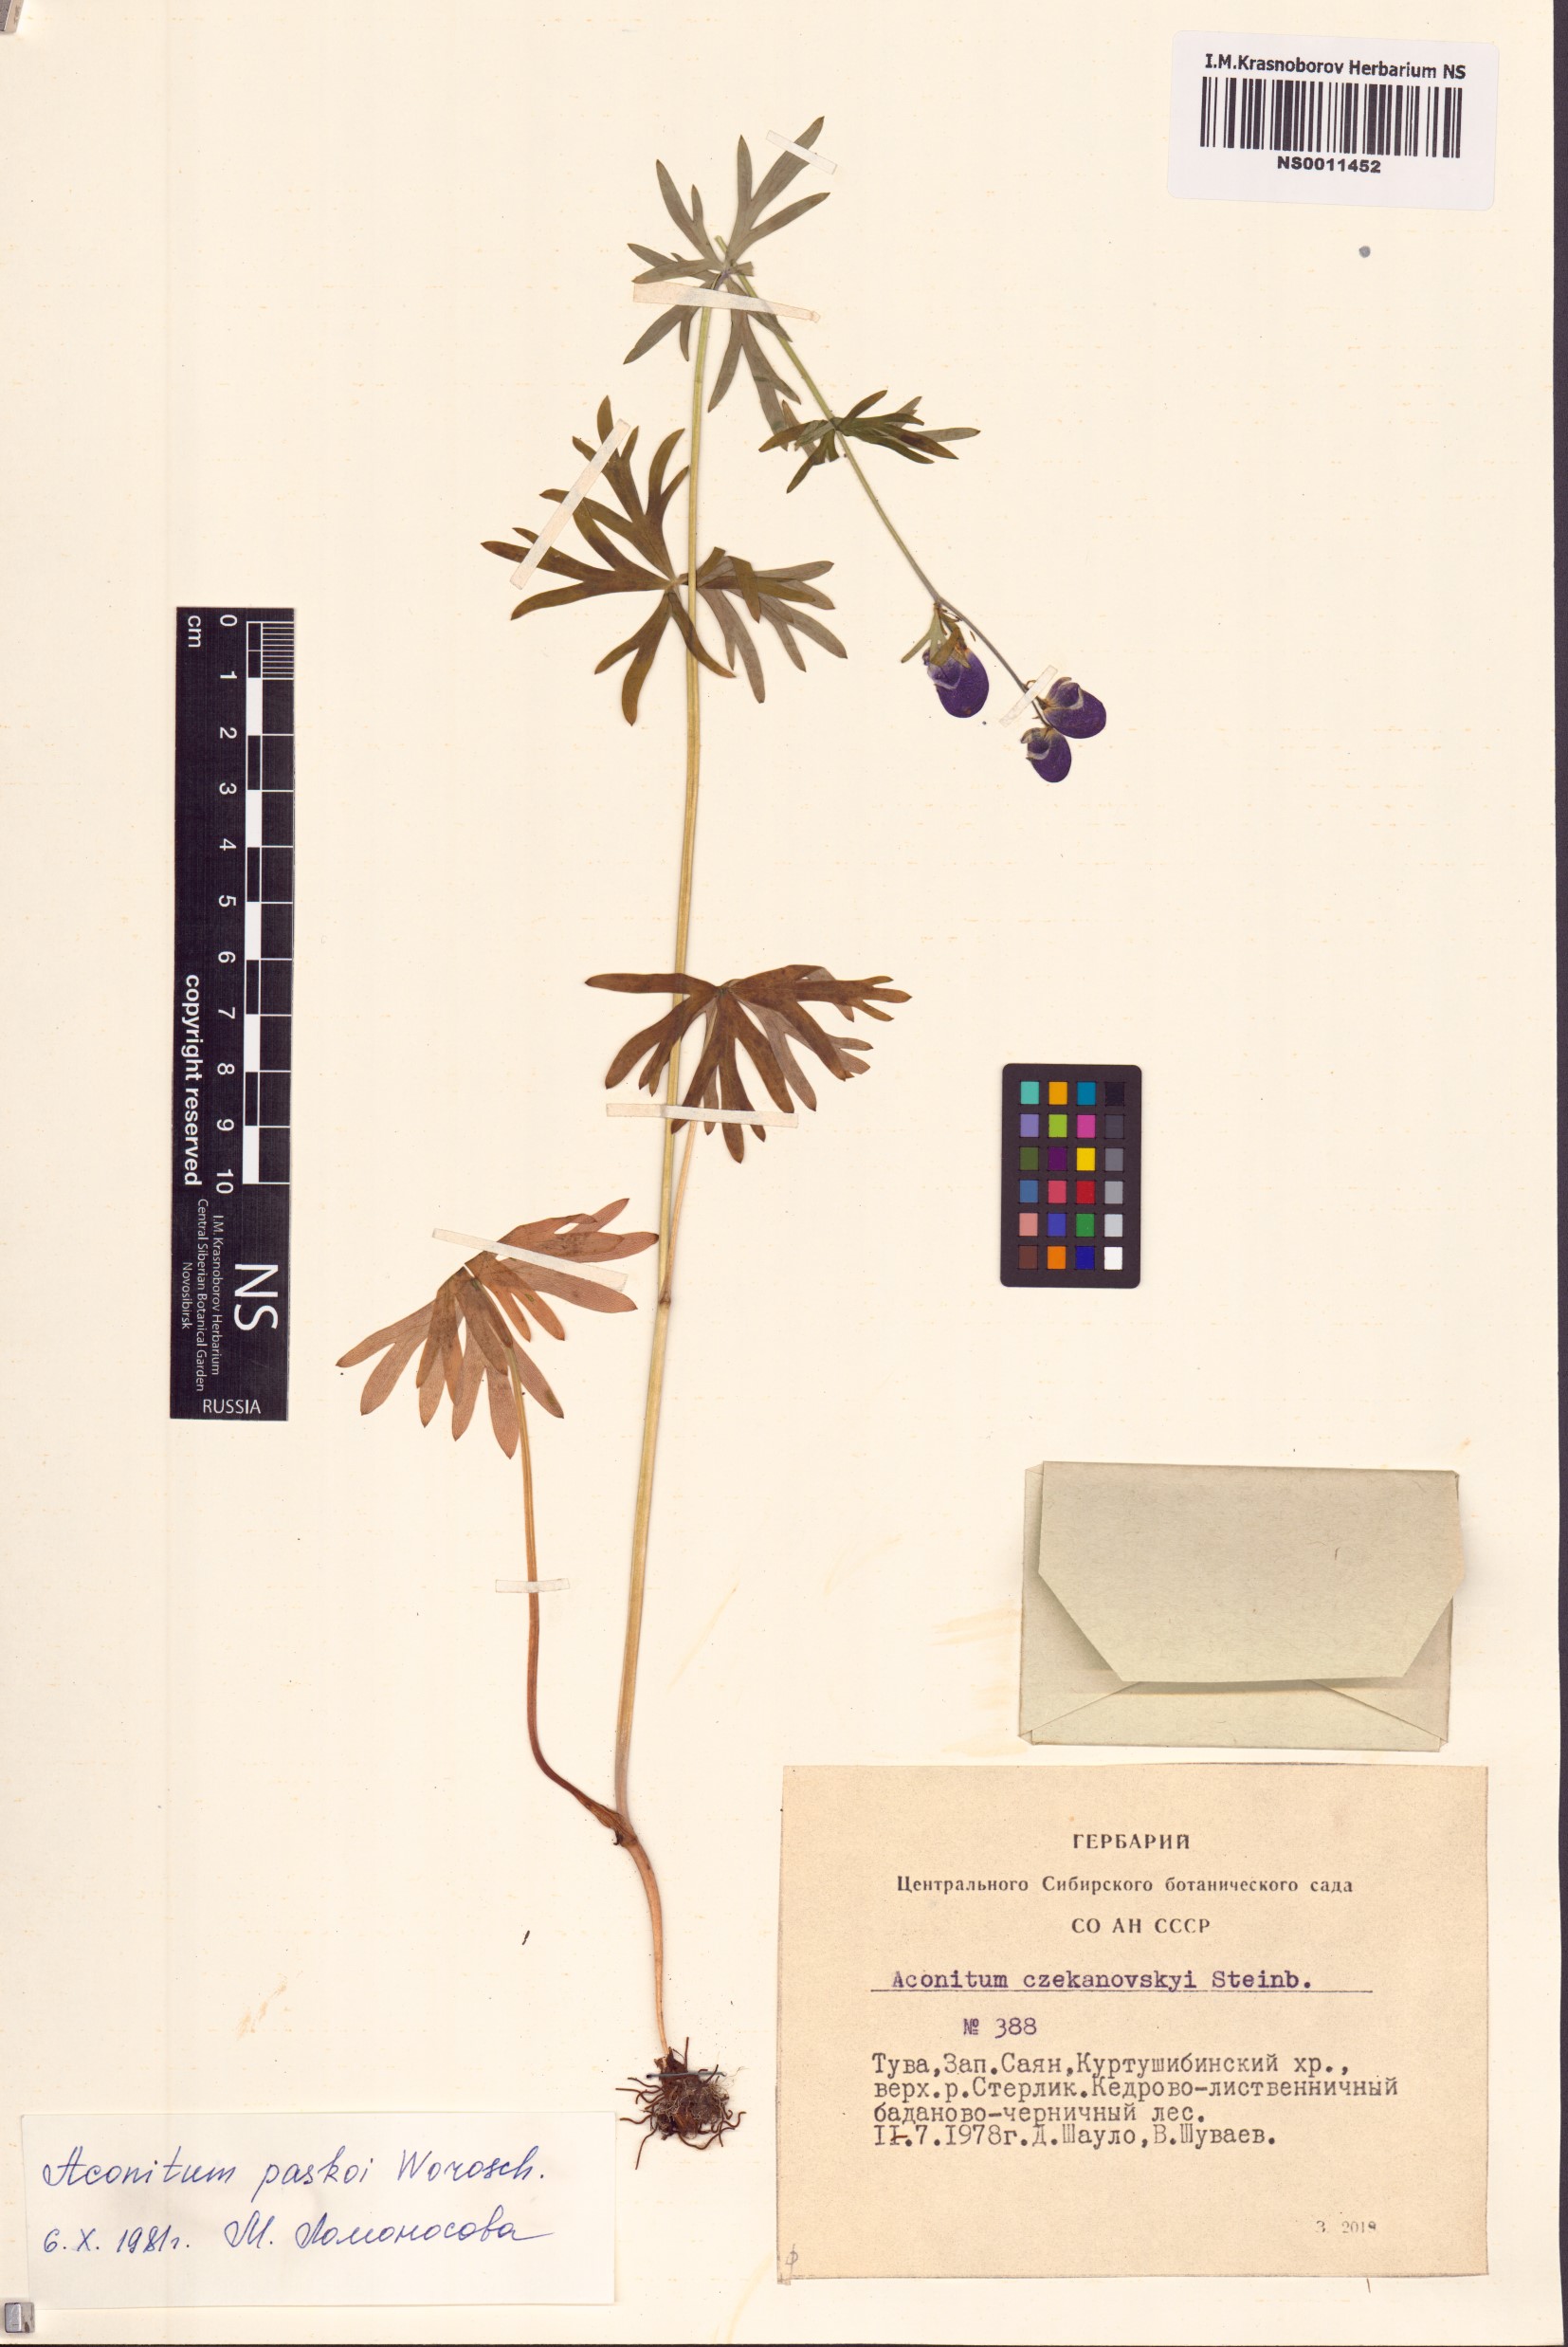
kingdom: Plantae
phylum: Tracheophyta
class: Magnoliopsida
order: Ranunculales
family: Ranunculaceae
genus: Aconitum
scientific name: Aconitum pascoi
